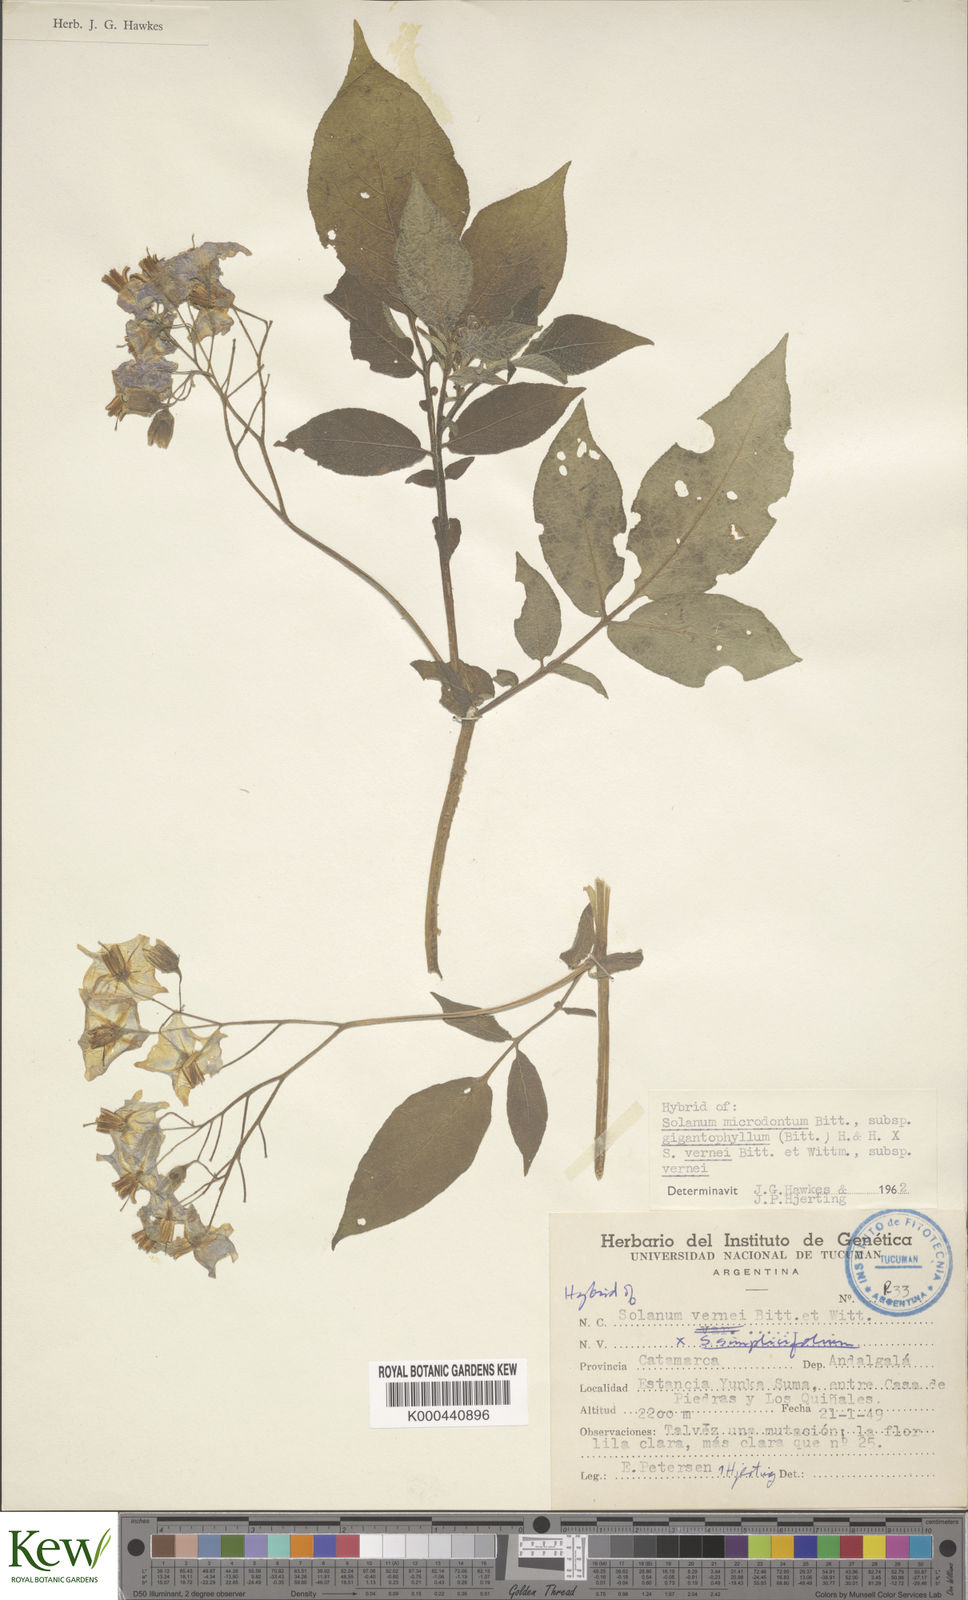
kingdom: Plantae
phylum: Tracheophyta
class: Magnoliopsida
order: Solanales
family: Solanaceae
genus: Solanum
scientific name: Solanum microdontum
